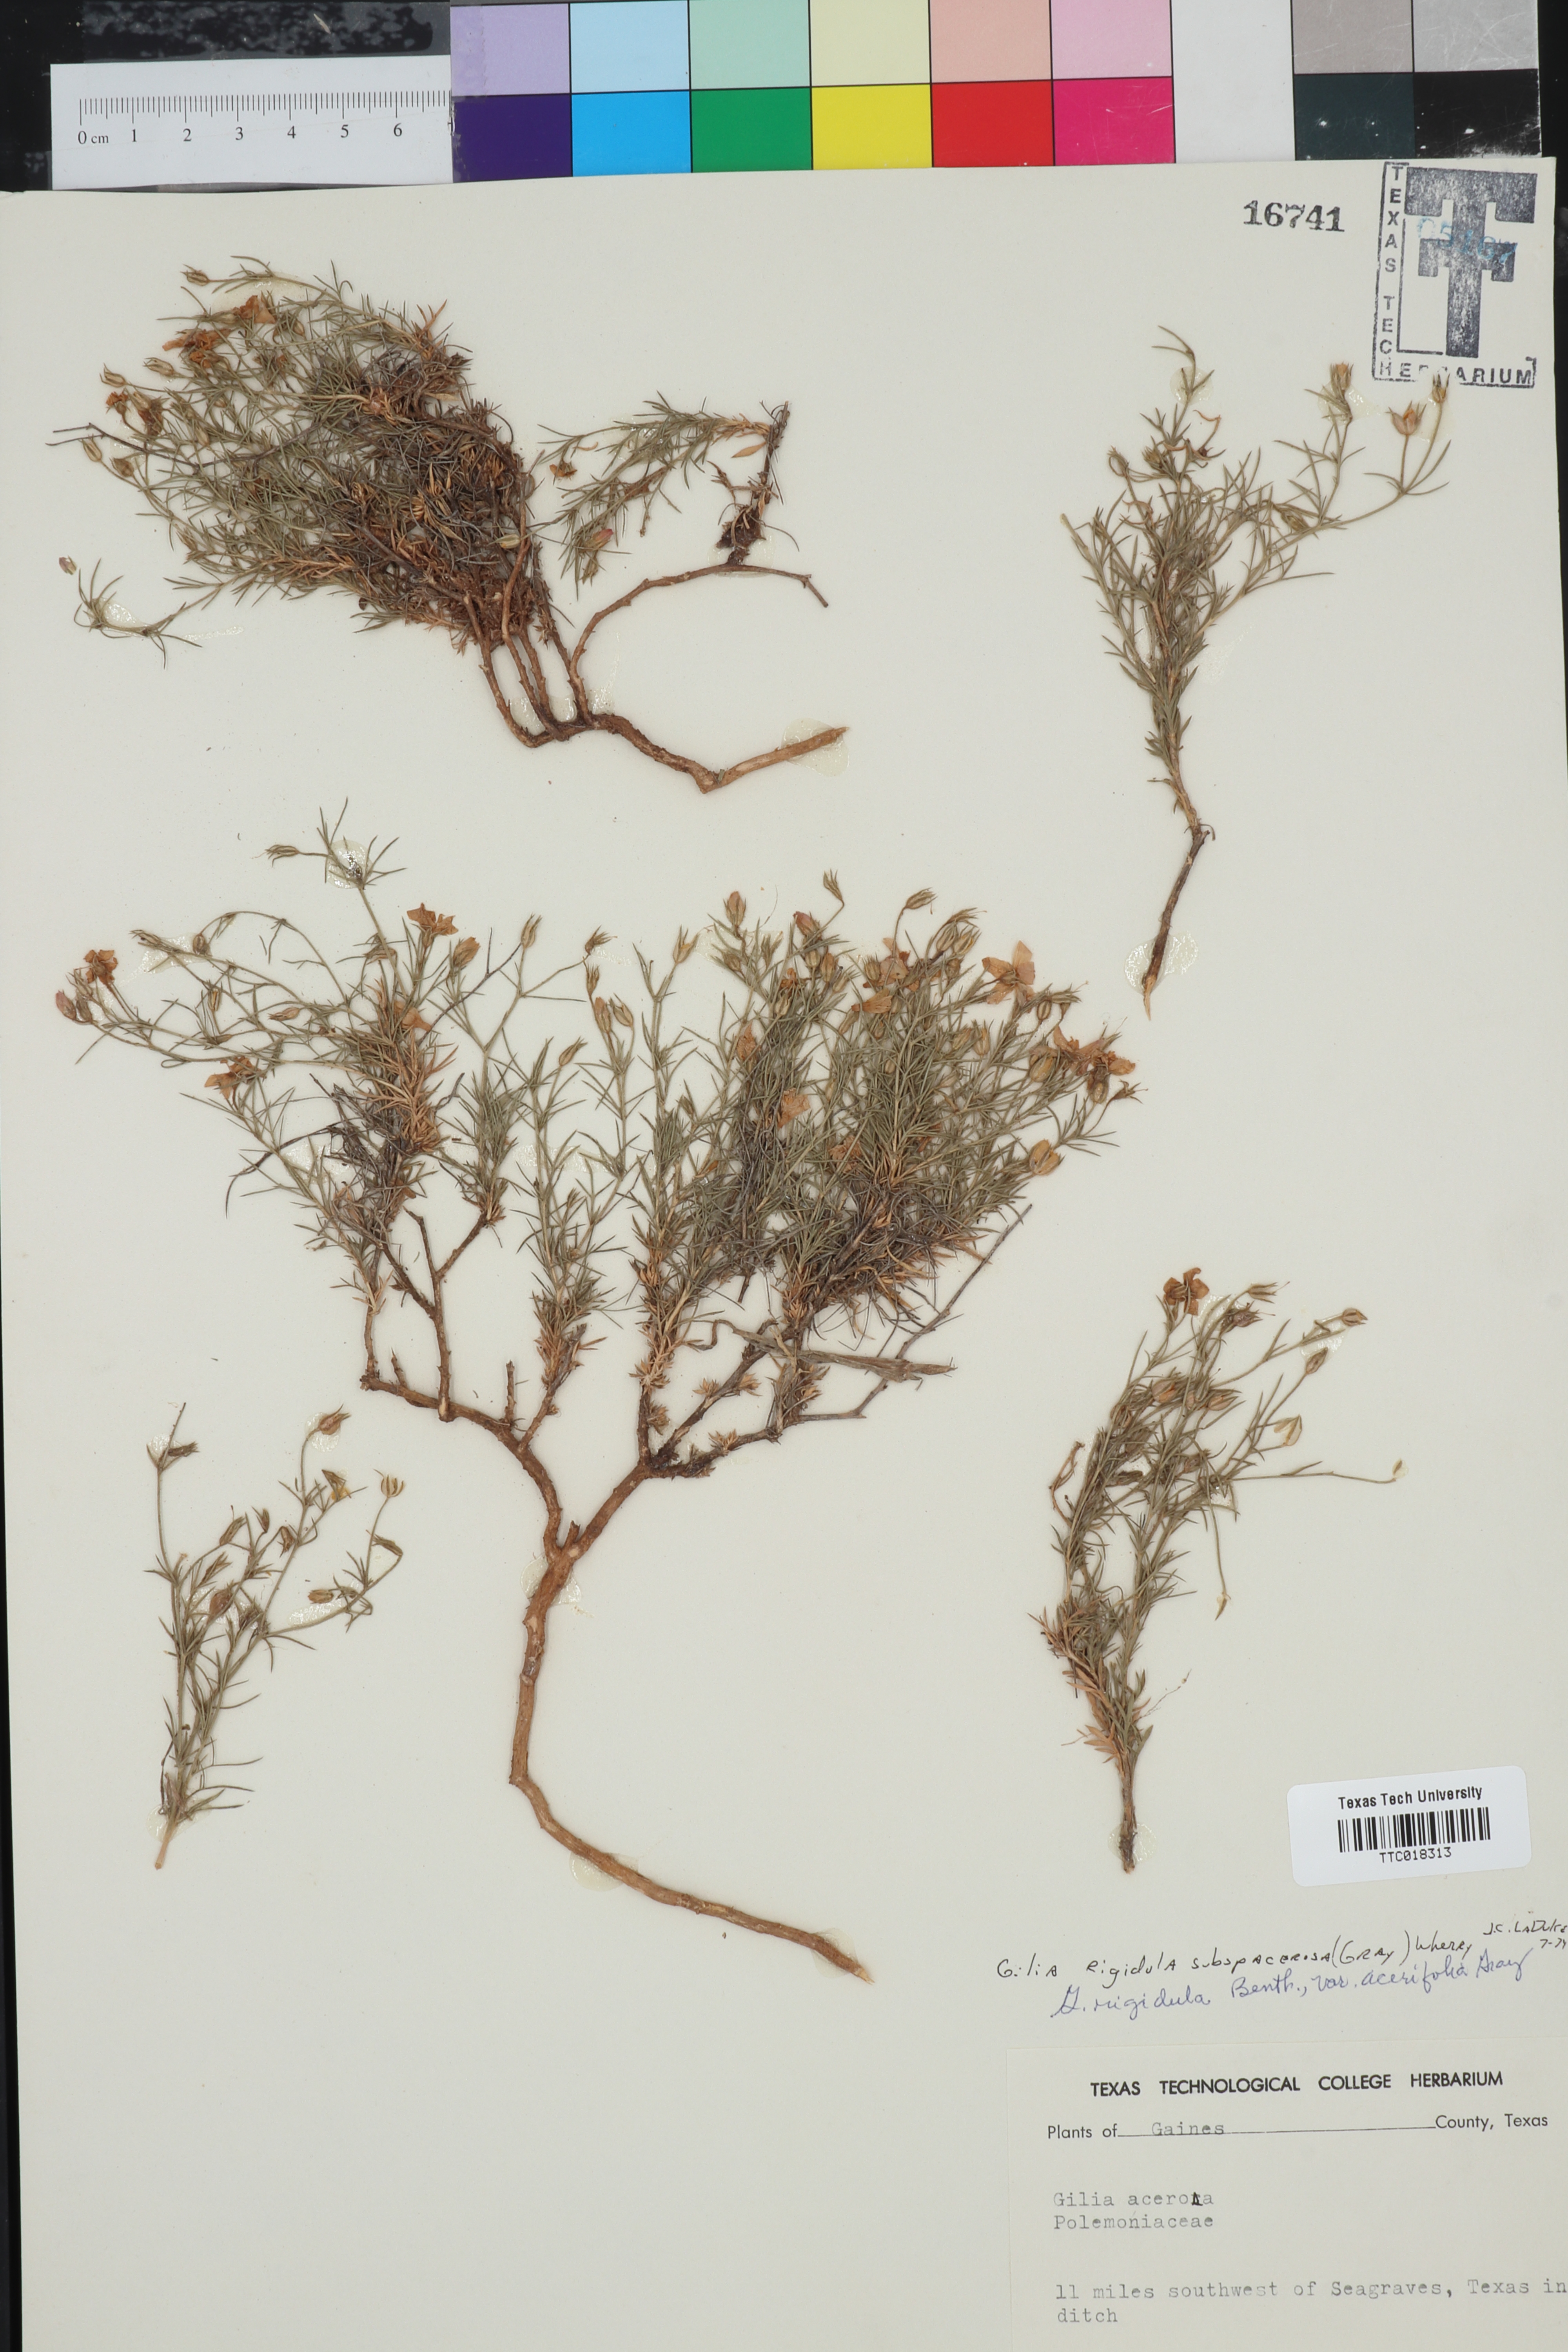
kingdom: Plantae
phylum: Tracheophyta
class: Magnoliopsida
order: Ericales
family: Polemoniaceae
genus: Giliastrum
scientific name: Giliastrum acerosum
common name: Bluebowls
